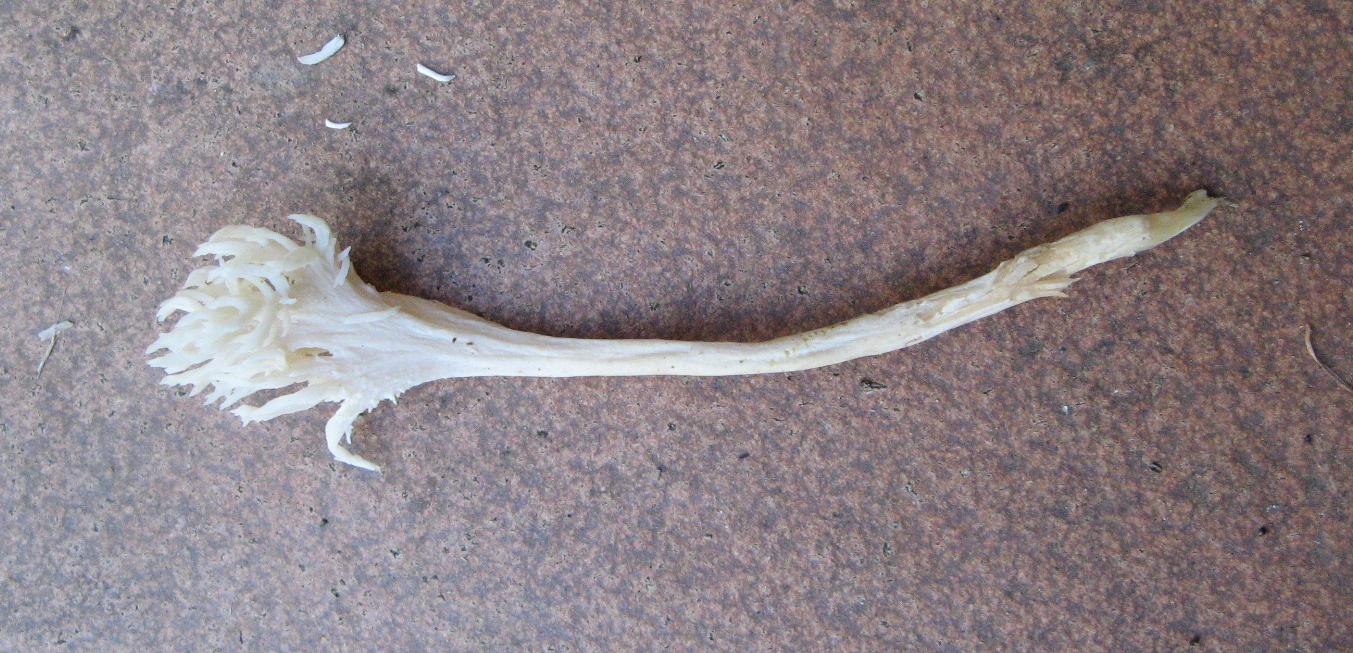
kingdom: Fungi
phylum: Basidiomycota
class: Agaricomycetes
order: Cantharellales
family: Hydnaceae
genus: Clavulina
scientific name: Clavulina
